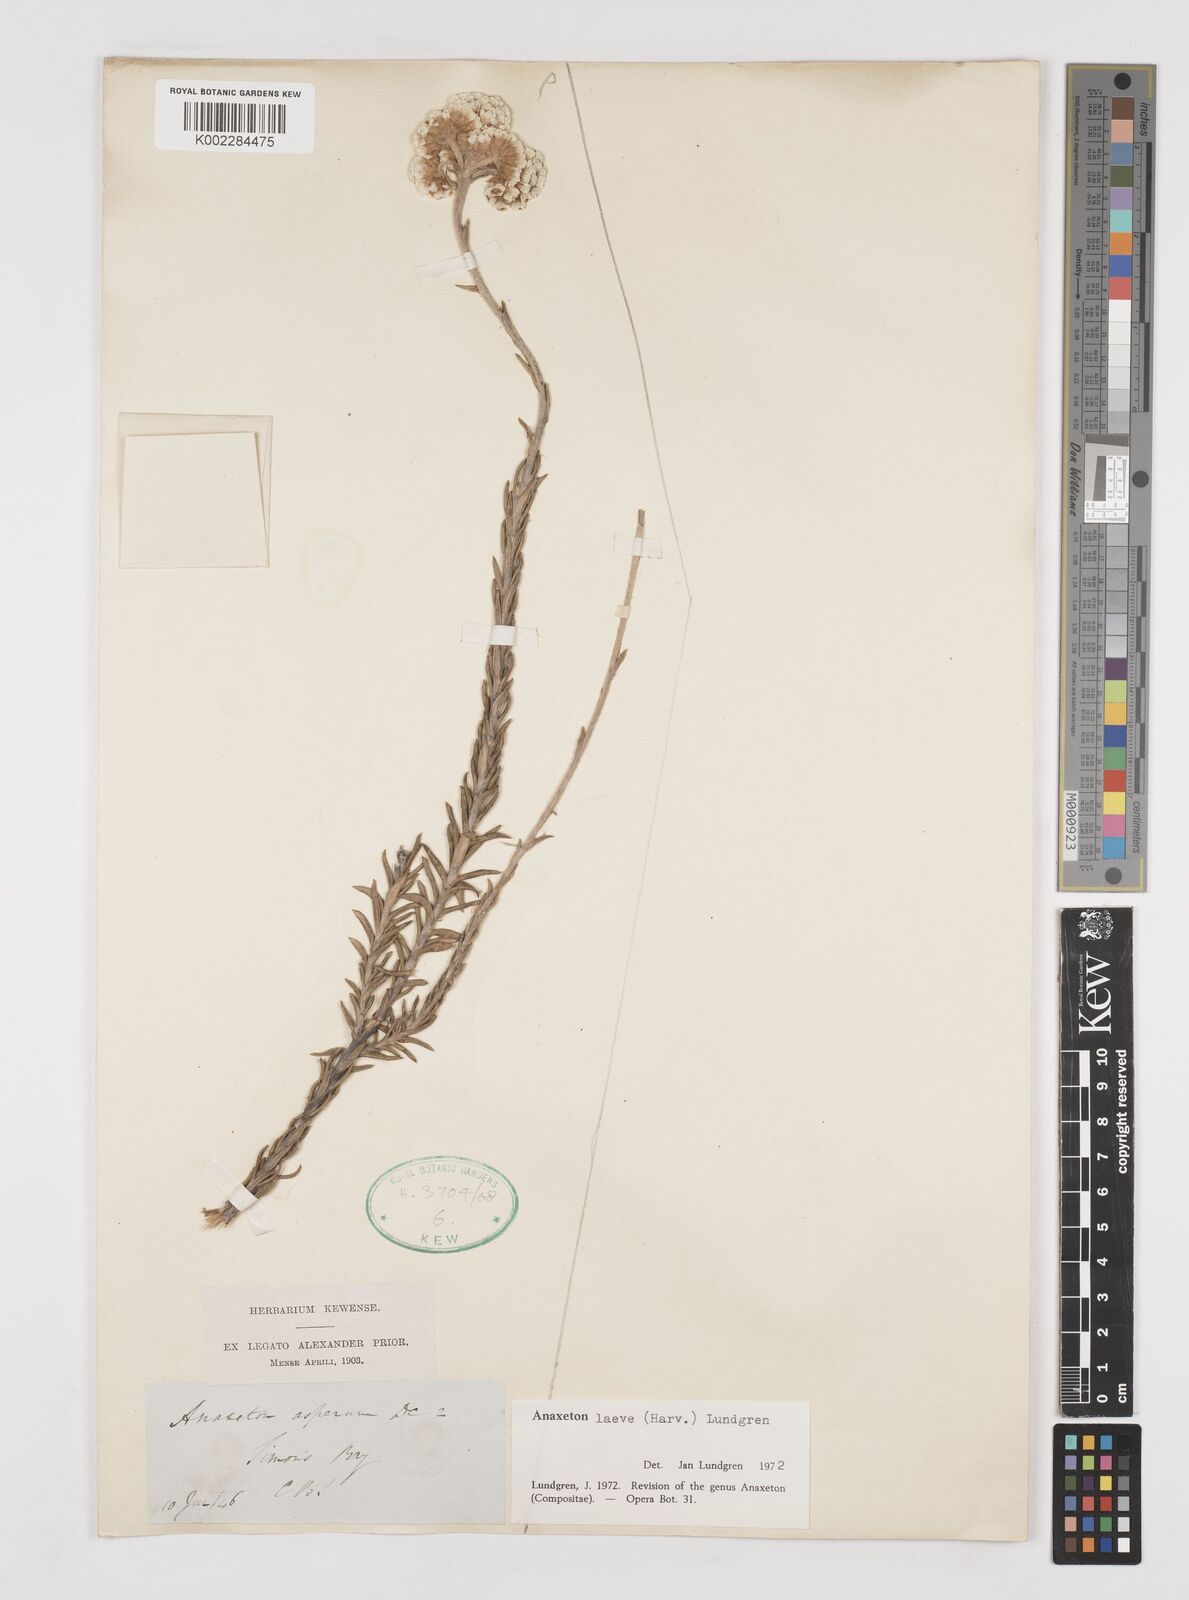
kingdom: Plantae
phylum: Tracheophyta
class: Magnoliopsida
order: Asterales
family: Asteraceae
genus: Anaxeton
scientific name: Anaxeton laeve
